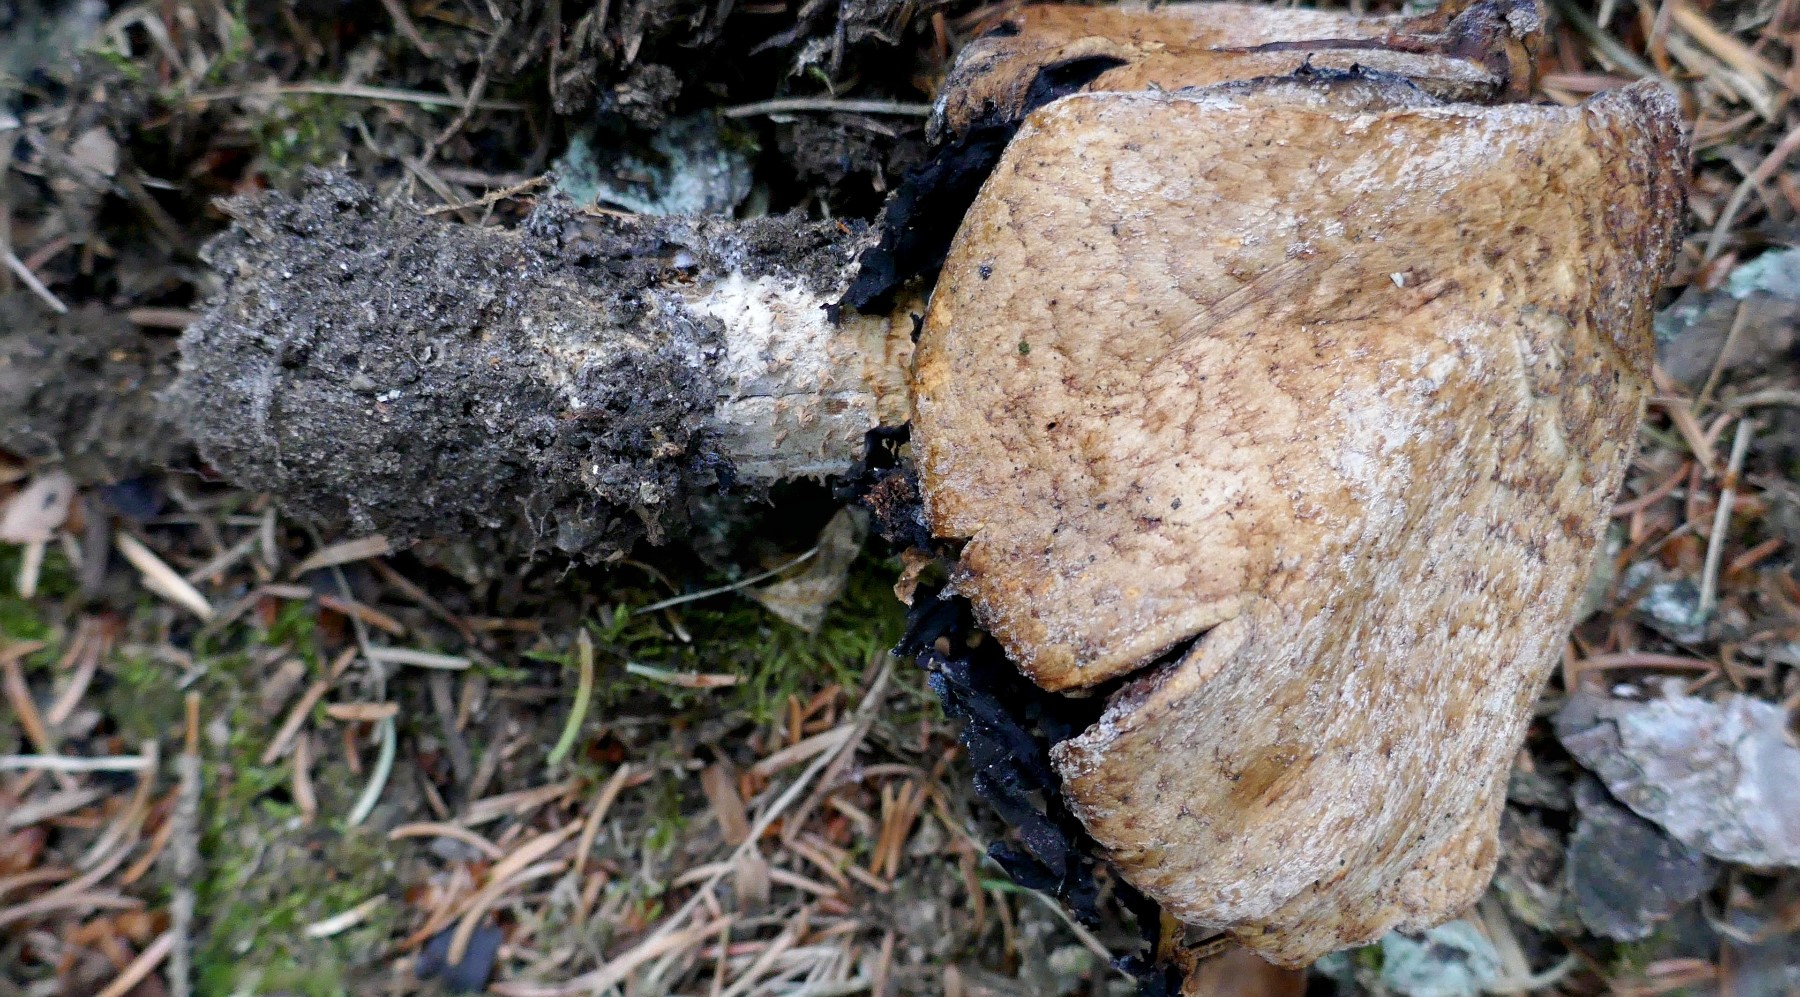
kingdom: Fungi
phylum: Basidiomycota
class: Agaricomycetes
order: Agaricales
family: Agaricaceae
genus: Agaricus
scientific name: Agaricus augustus
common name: prægtig champignon
